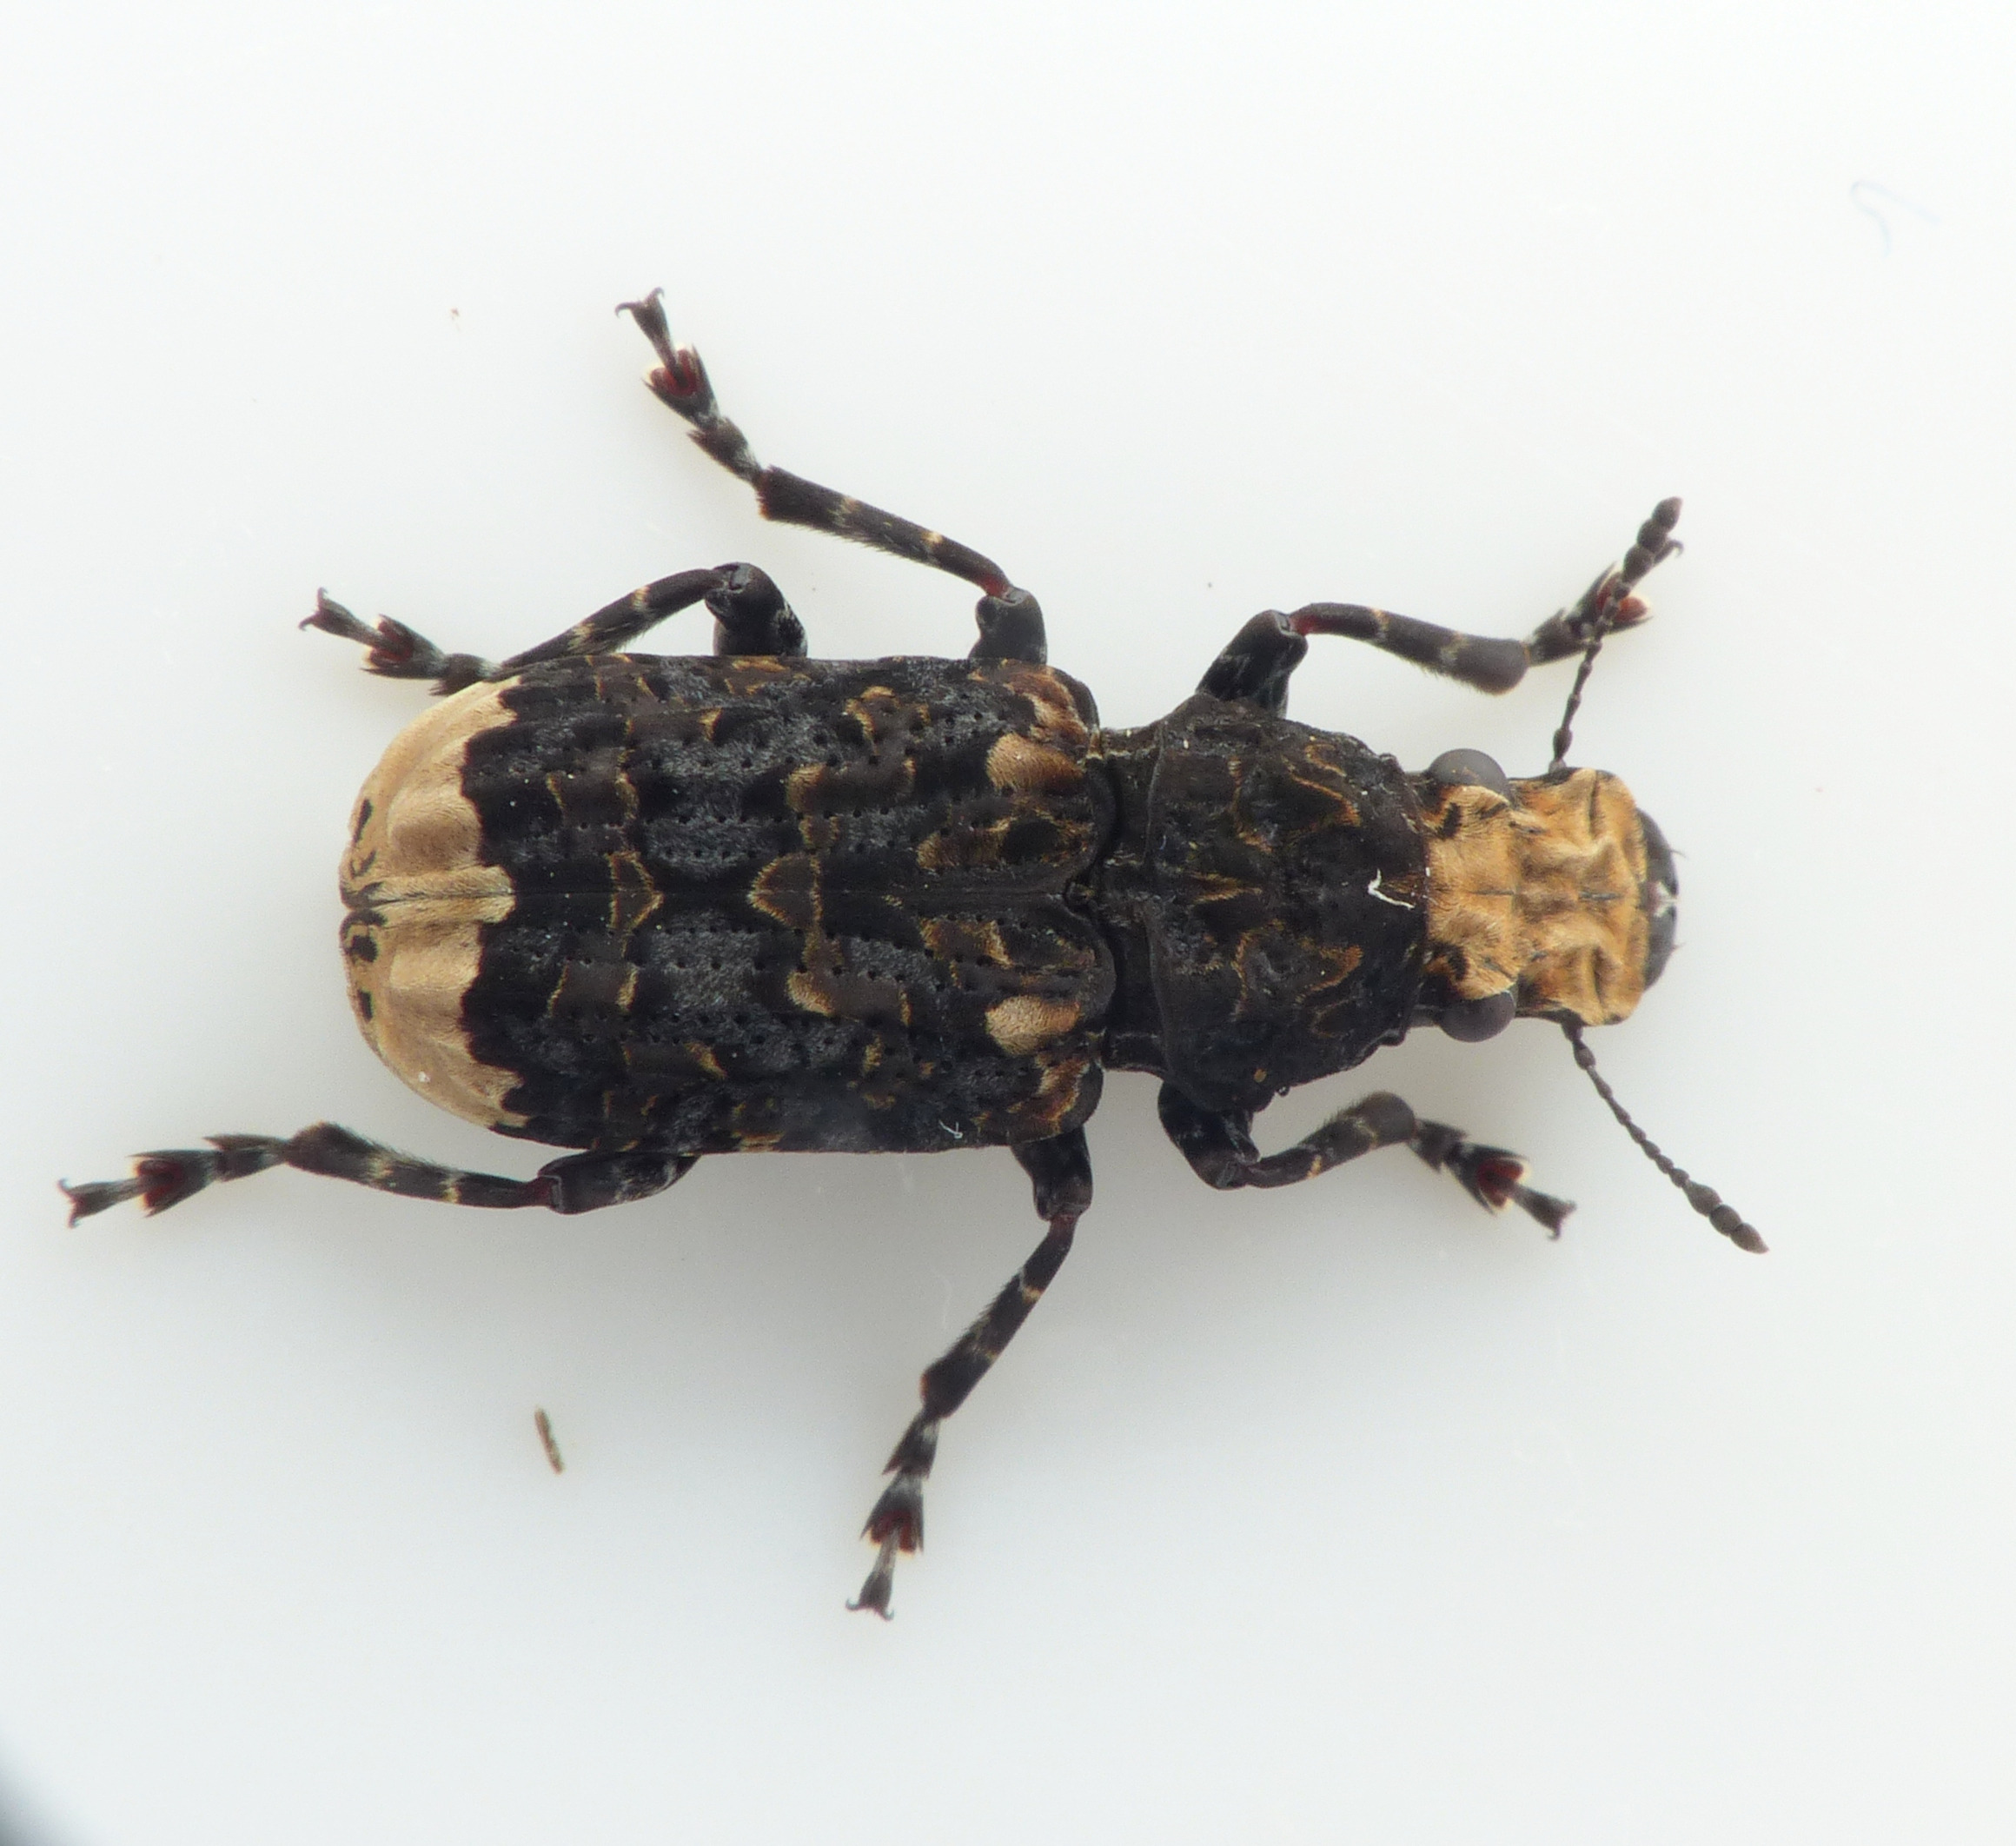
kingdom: Animalia
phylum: Arthropoda
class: Insecta
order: Coleoptera
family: Anthribidae
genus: Platyrhinus
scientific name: Platyrhinus resinosus
